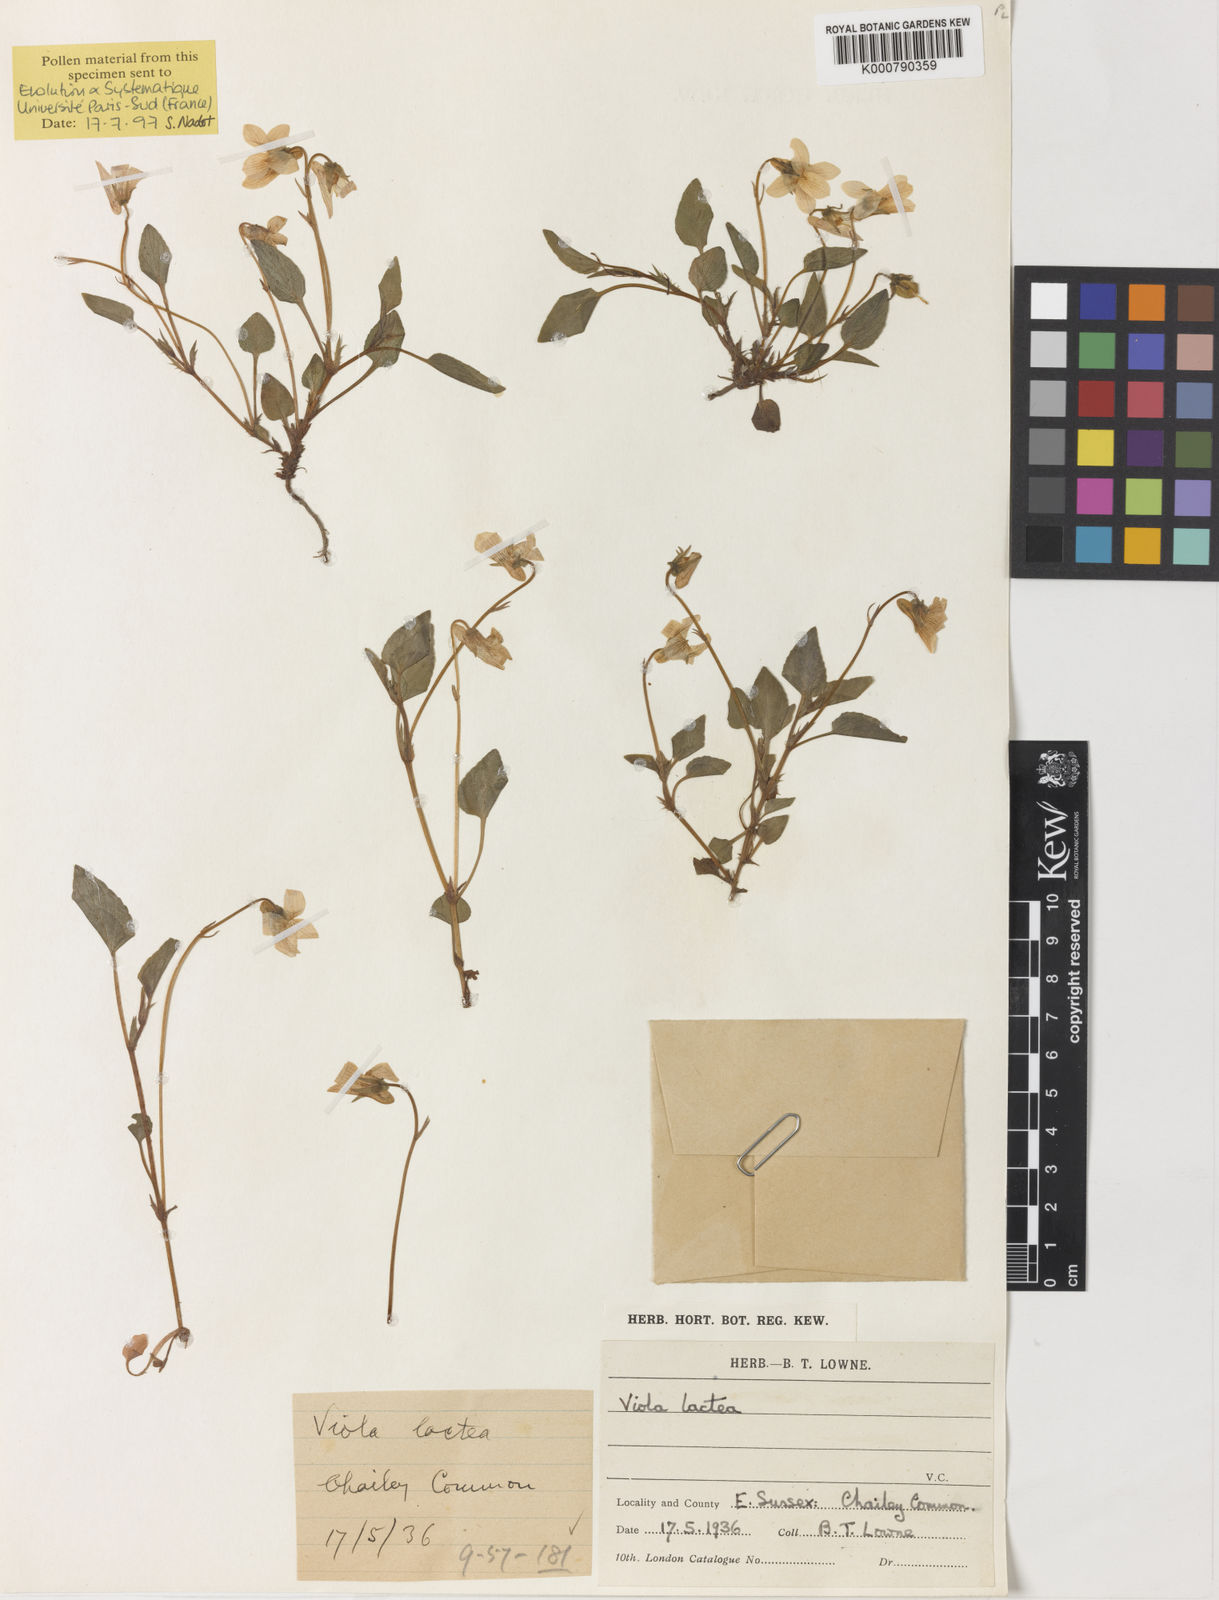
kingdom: Plantae
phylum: Tracheophyta
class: Magnoliopsida
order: Malpighiales
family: Violaceae
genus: Viola
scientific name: Viola lactea
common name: Pale dog-violet
